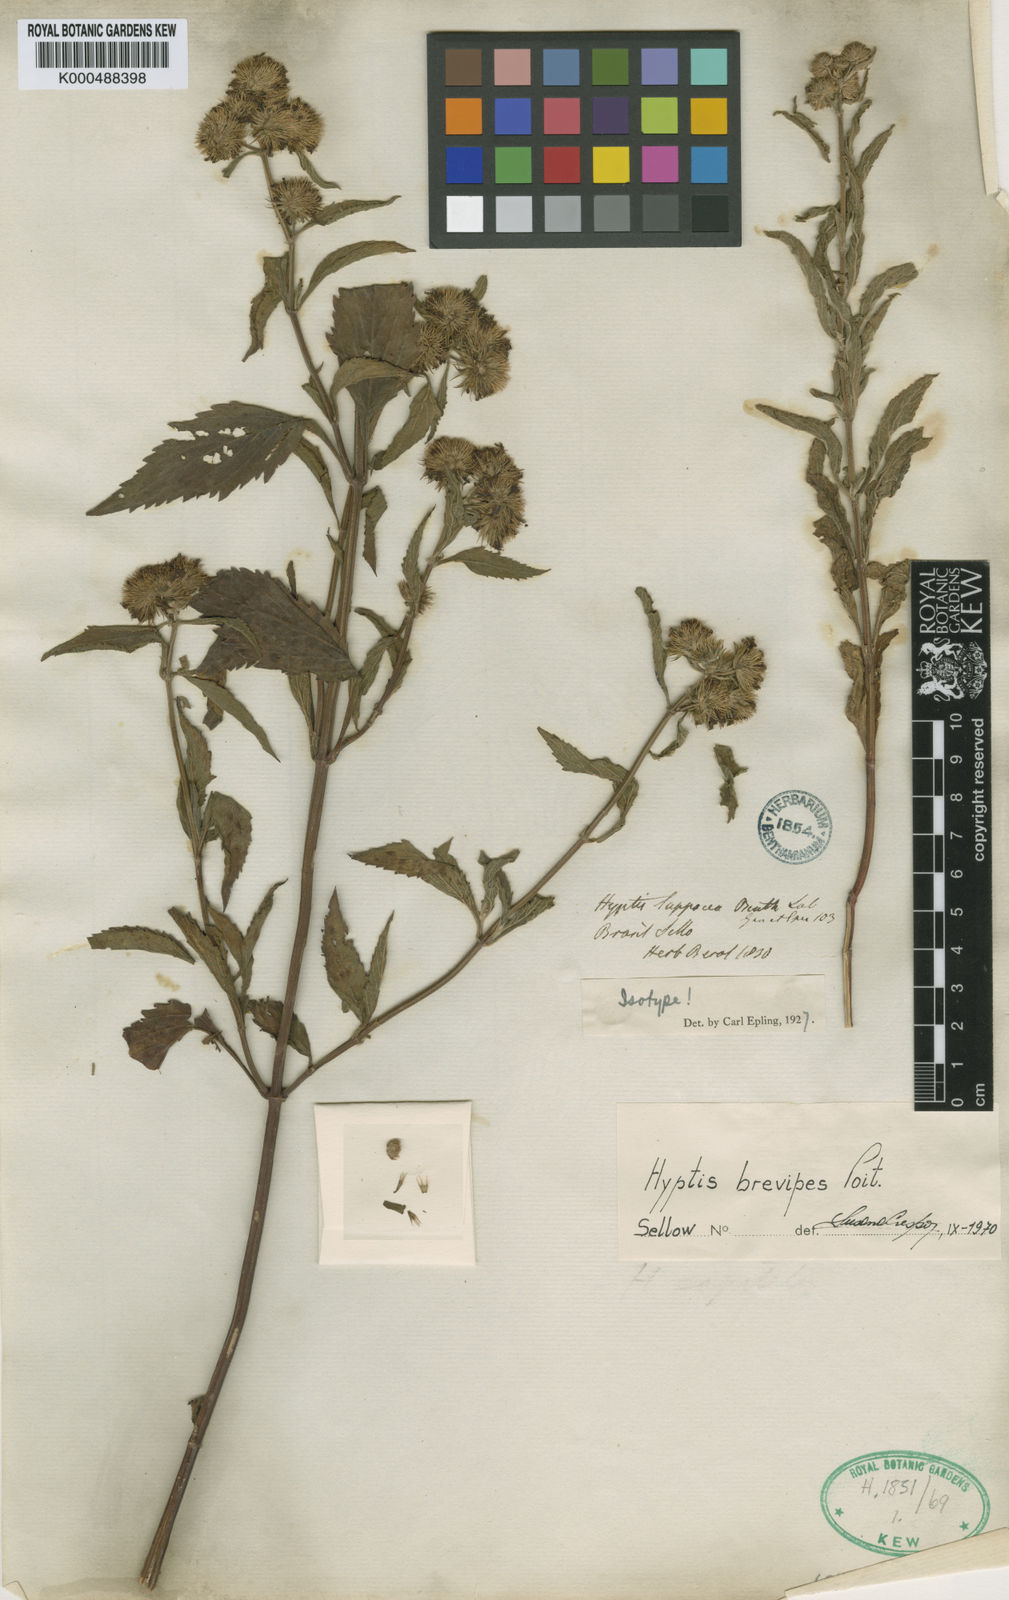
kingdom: Plantae
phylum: Tracheophyta
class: Magnoliopsida
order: Lamiales
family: Lamiaceae
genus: Hyptis
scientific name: Hyptis lappacea
